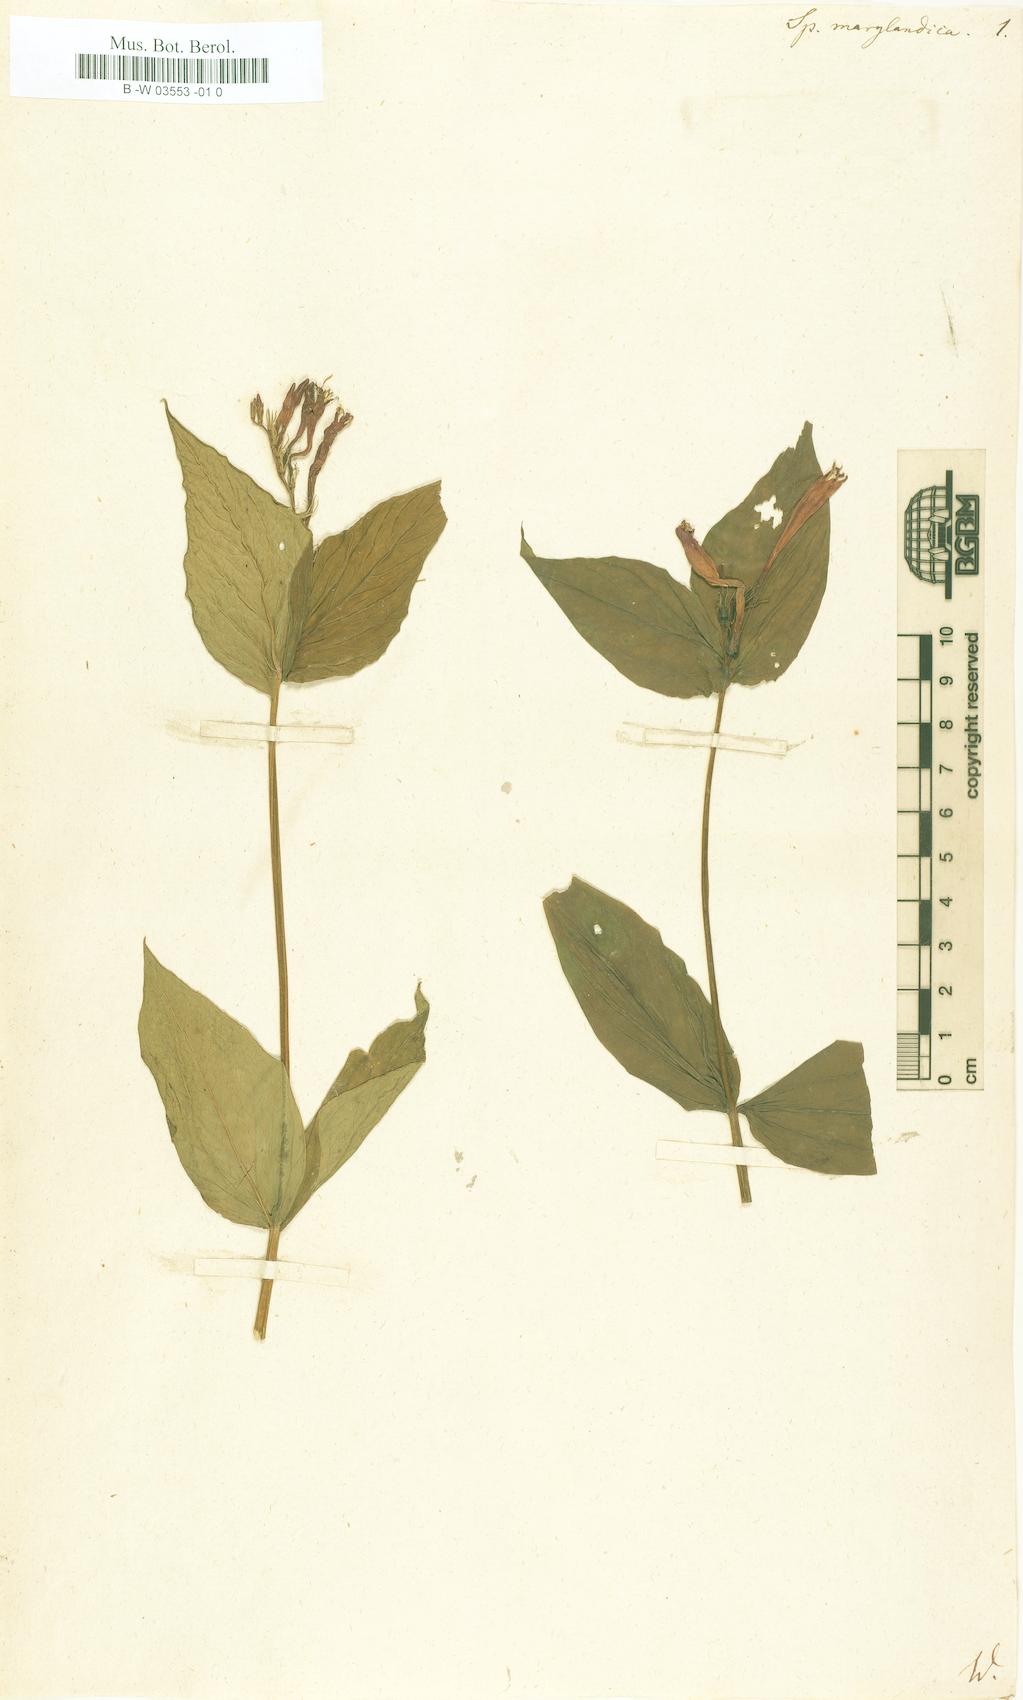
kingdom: Plantae
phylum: Tracheophyta
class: Magnoliopsida
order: Gentianales
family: Loganiaceae
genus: Spigelia
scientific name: Spigelia marilandica
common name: Indian-pink
